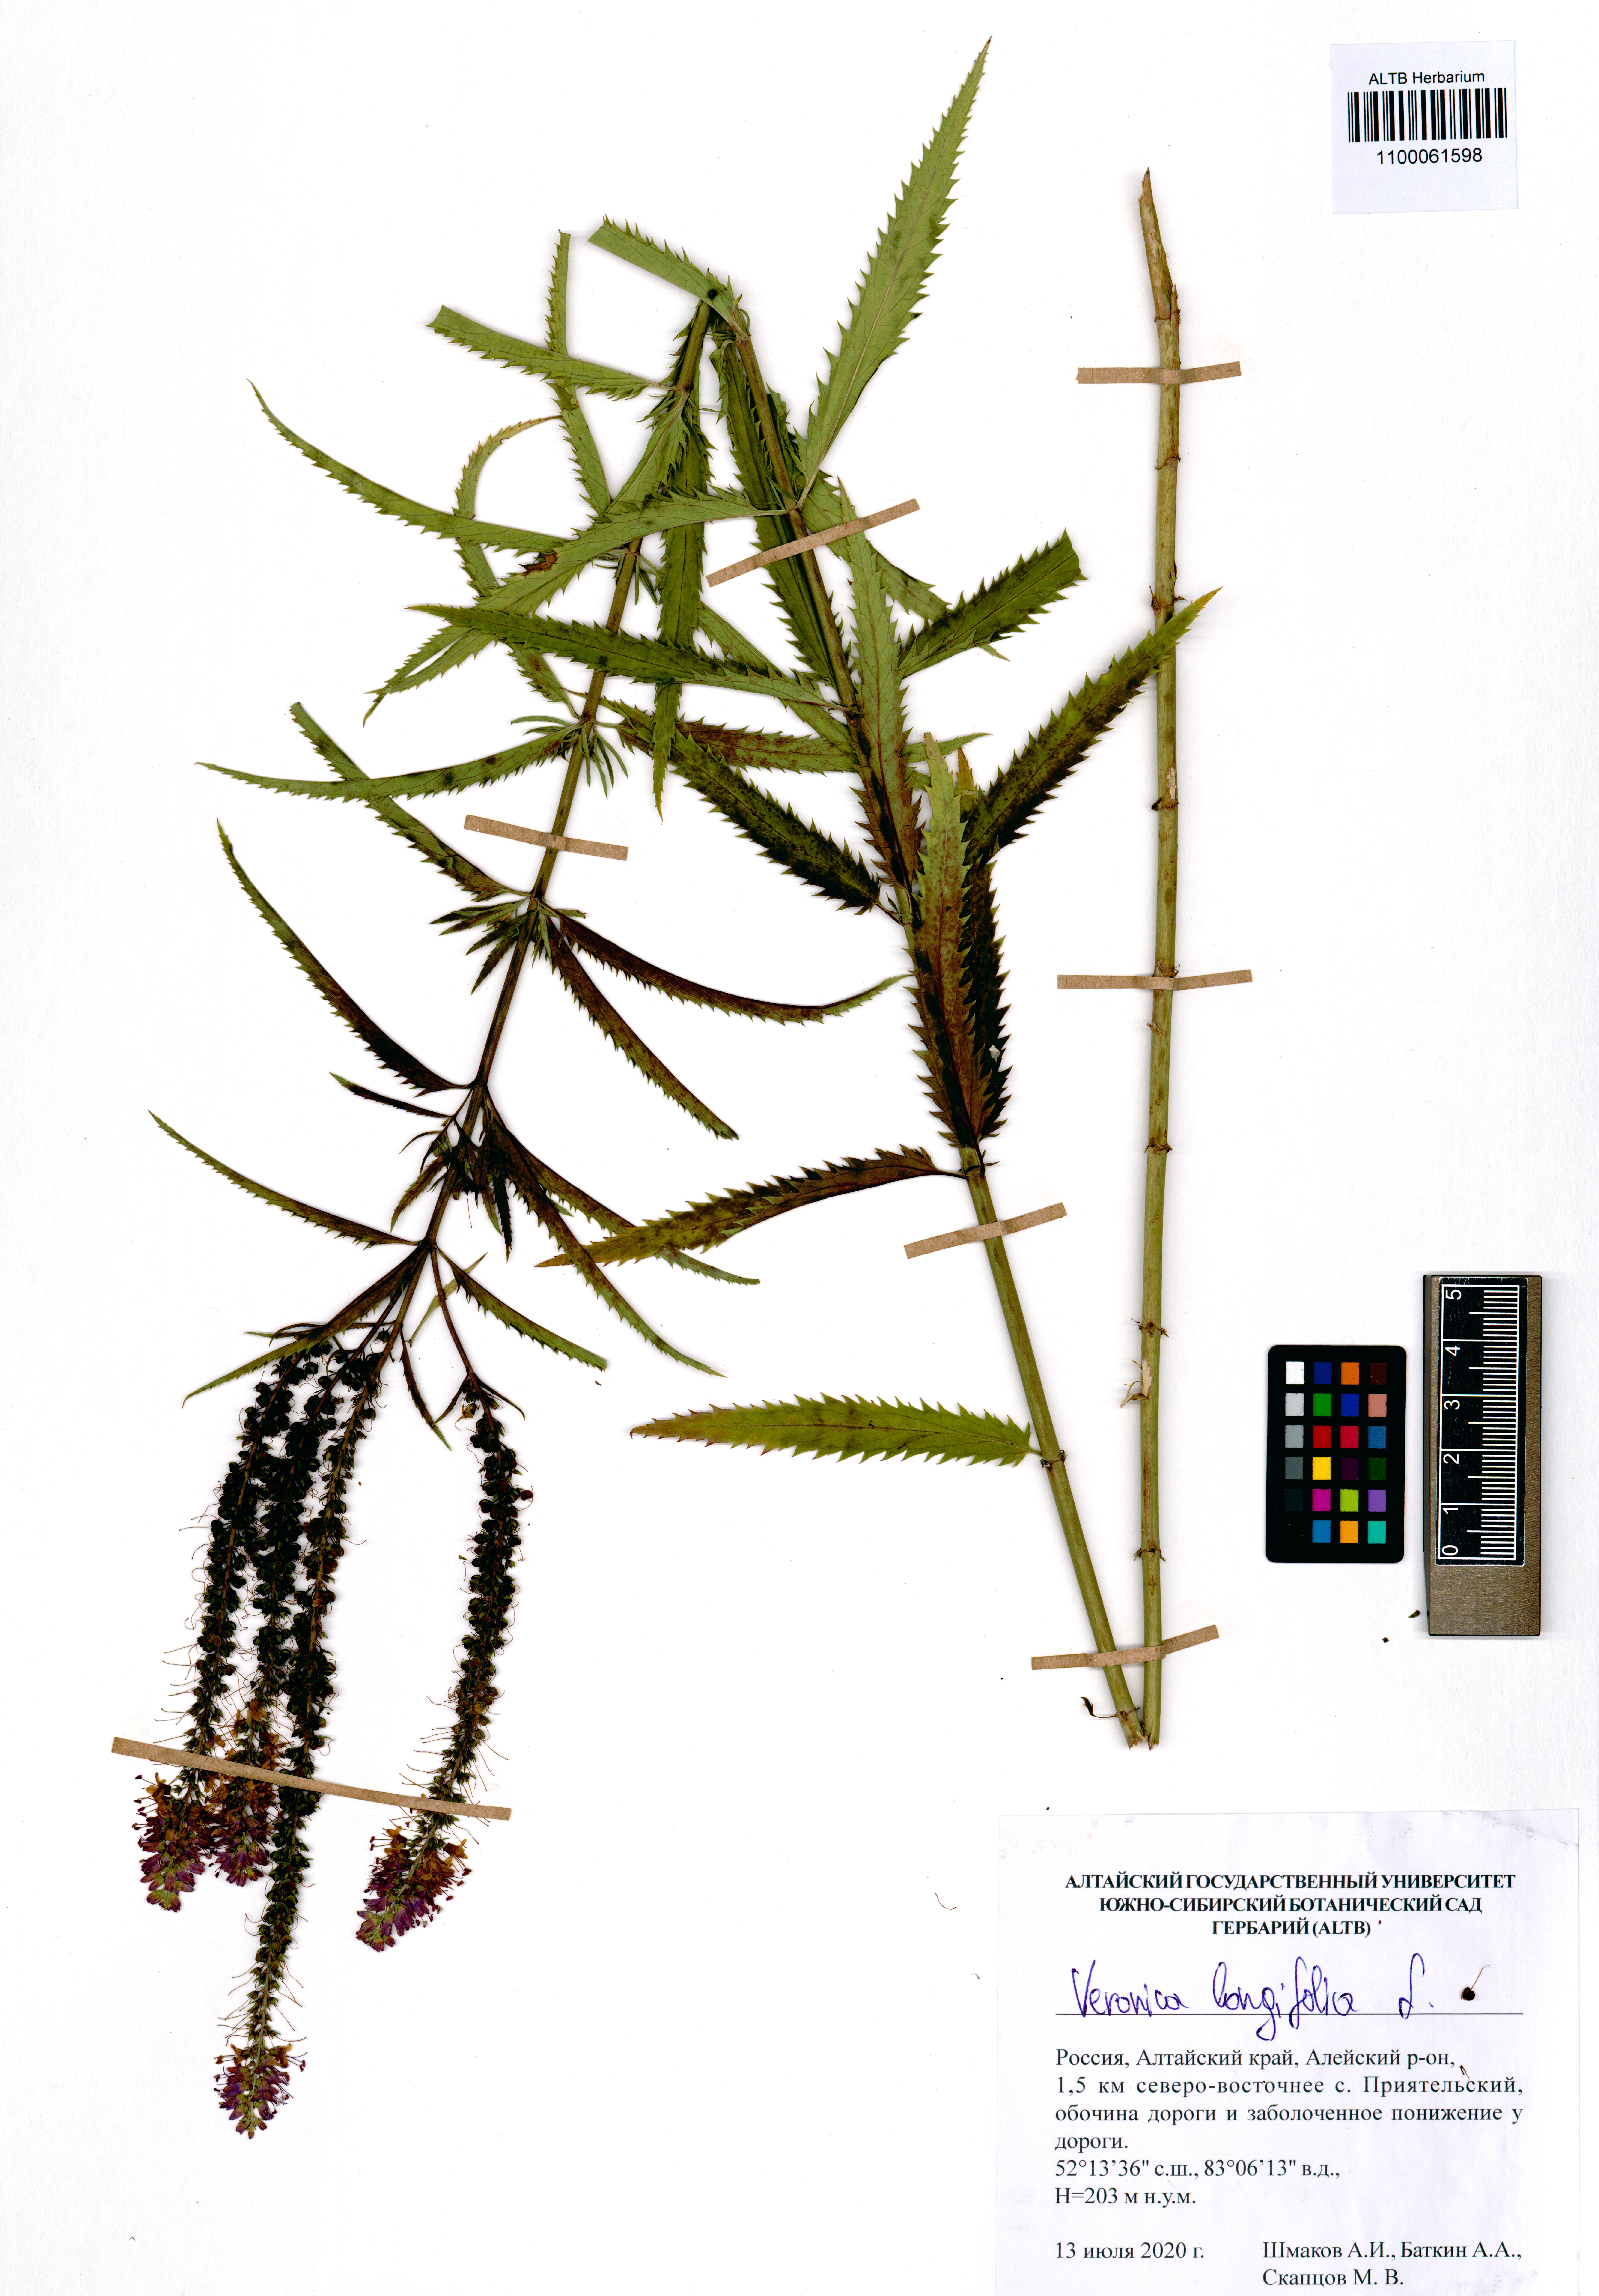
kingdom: Plantae
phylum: Tracheophyta
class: Magnoliopsida
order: Lamiales
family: Plantaginaceae
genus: Veronica
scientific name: Veronica longifolia
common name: Garden speedwell
